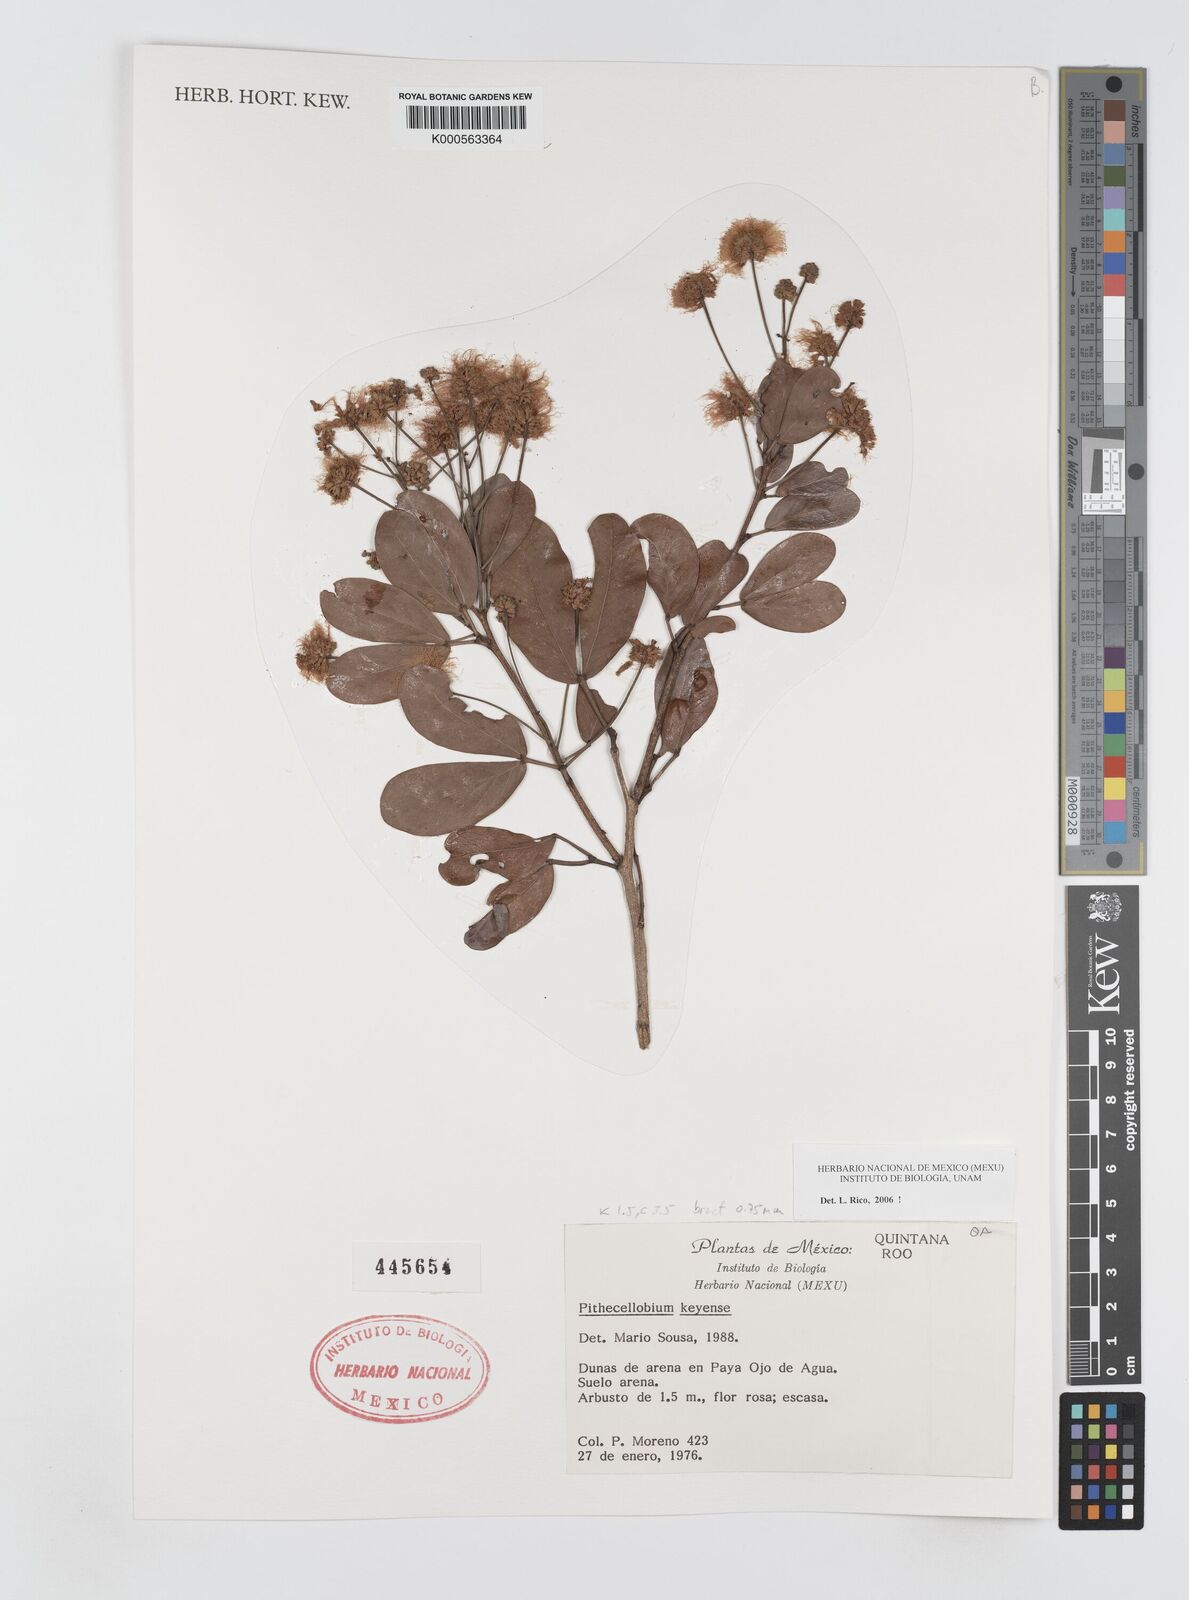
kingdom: Plantae
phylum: Tracheophyta
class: Magnoliopsida
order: Fabales
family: Fabaceae
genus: Pithecellobium
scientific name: Pithecellobium
